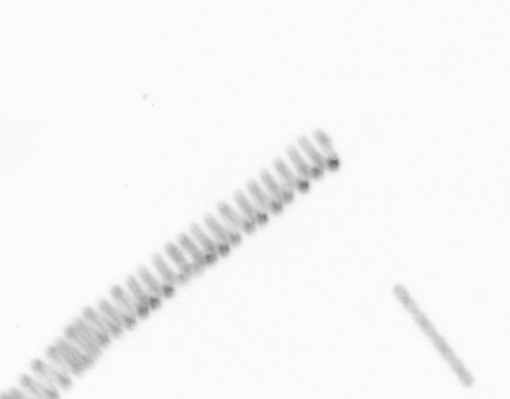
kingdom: Chromista
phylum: Ochrophyta
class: Bacillariophyceae
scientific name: Bacillariophyceae
